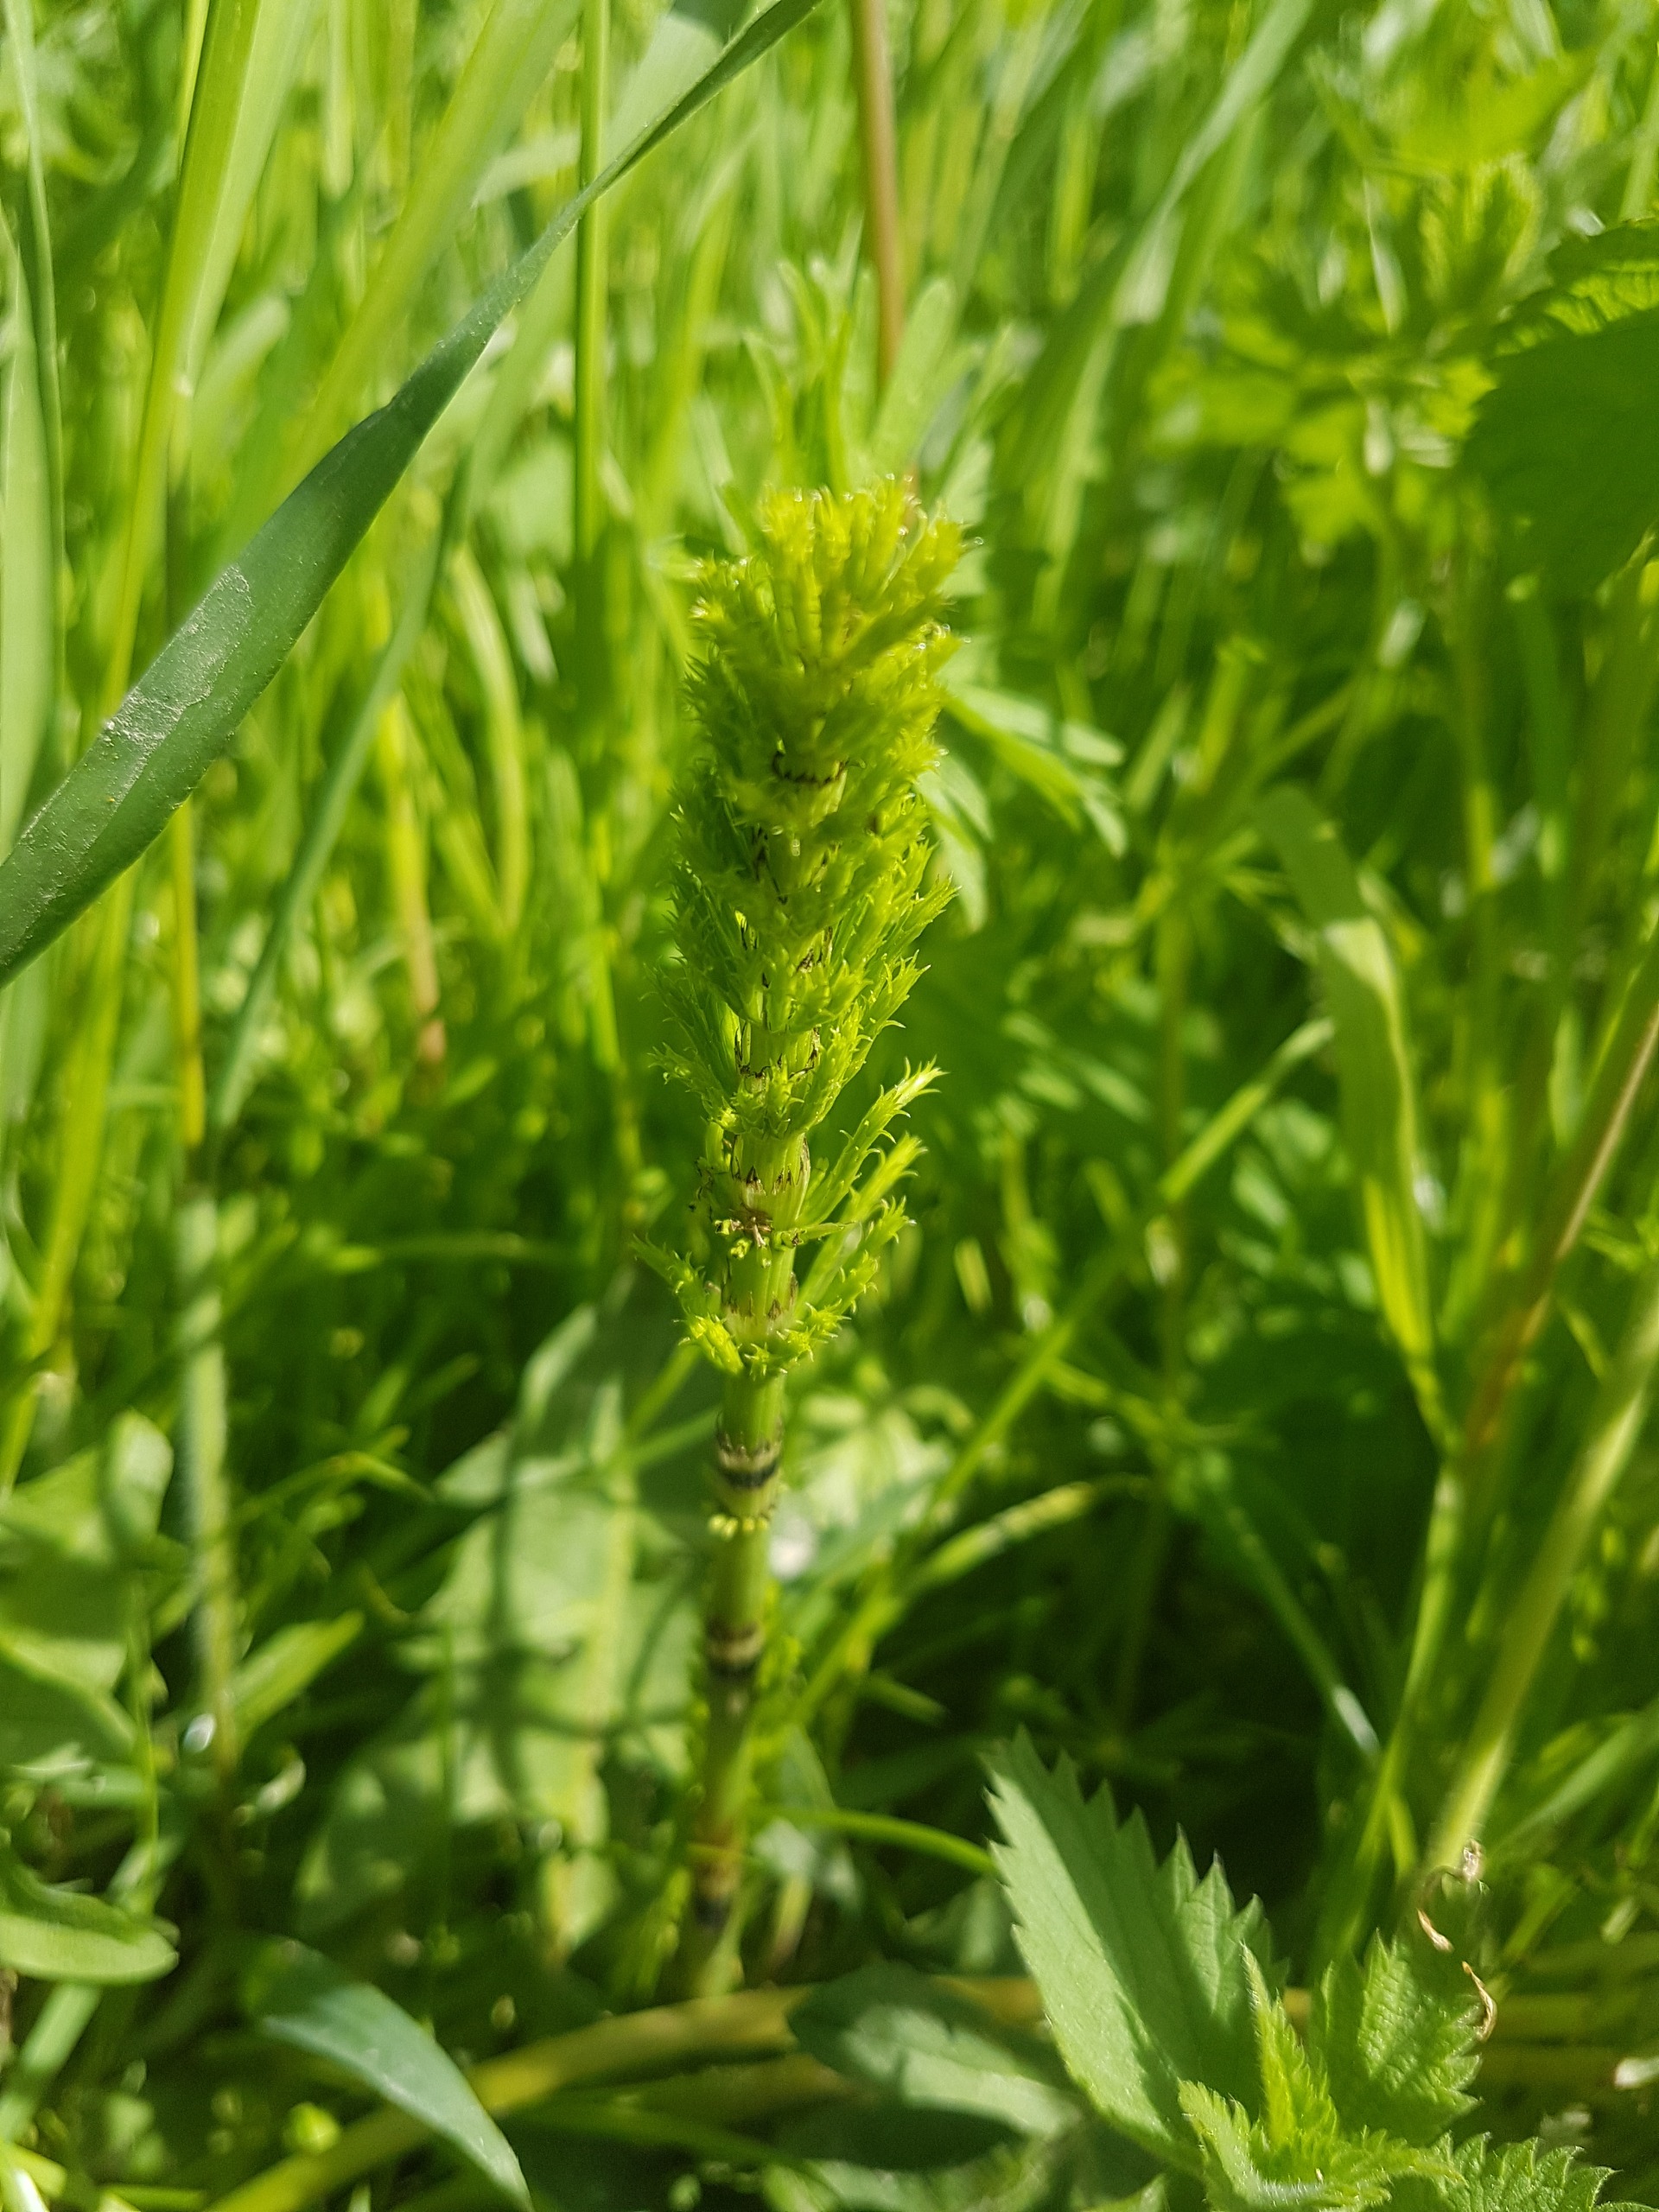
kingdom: Plantae
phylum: Tracheophyta
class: Polypodiopsida
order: Equisetales
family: Equisetaceae
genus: Equisetum
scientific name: Equisetum arvense
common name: Ager-padderok
